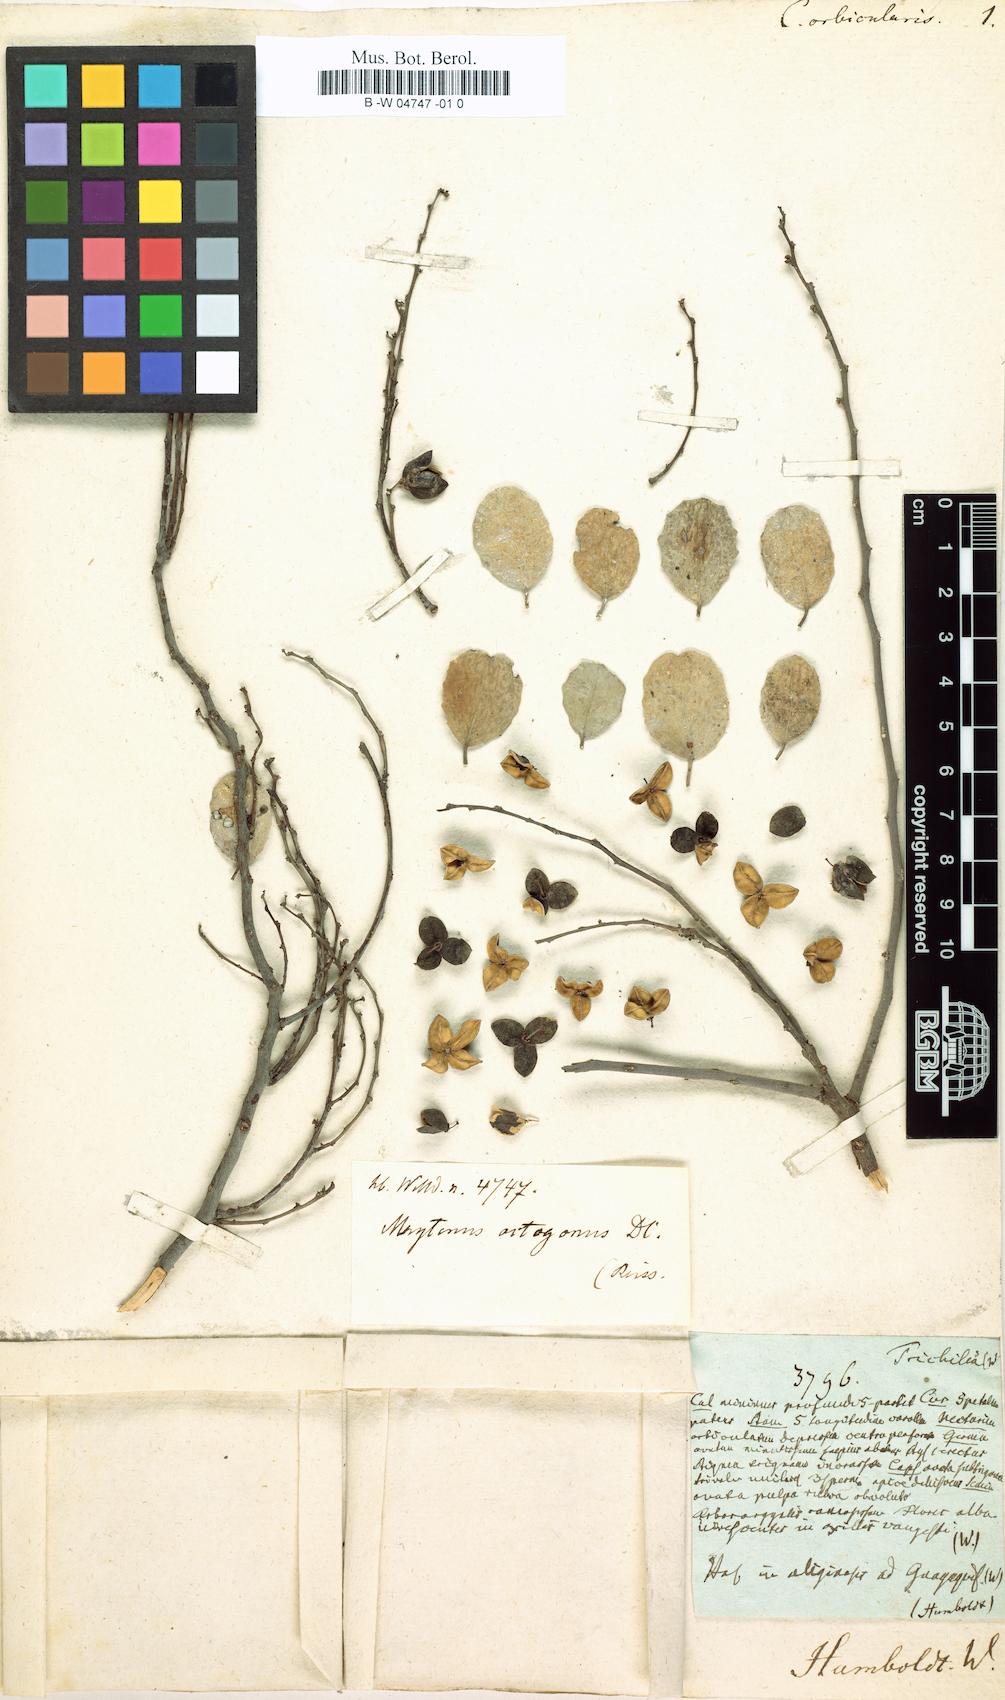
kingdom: Plantae
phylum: Tracheophyta
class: Magnoliopsida
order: Celastrales
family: Celastraceae
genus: Tricerma
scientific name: Tricerma octogonum
